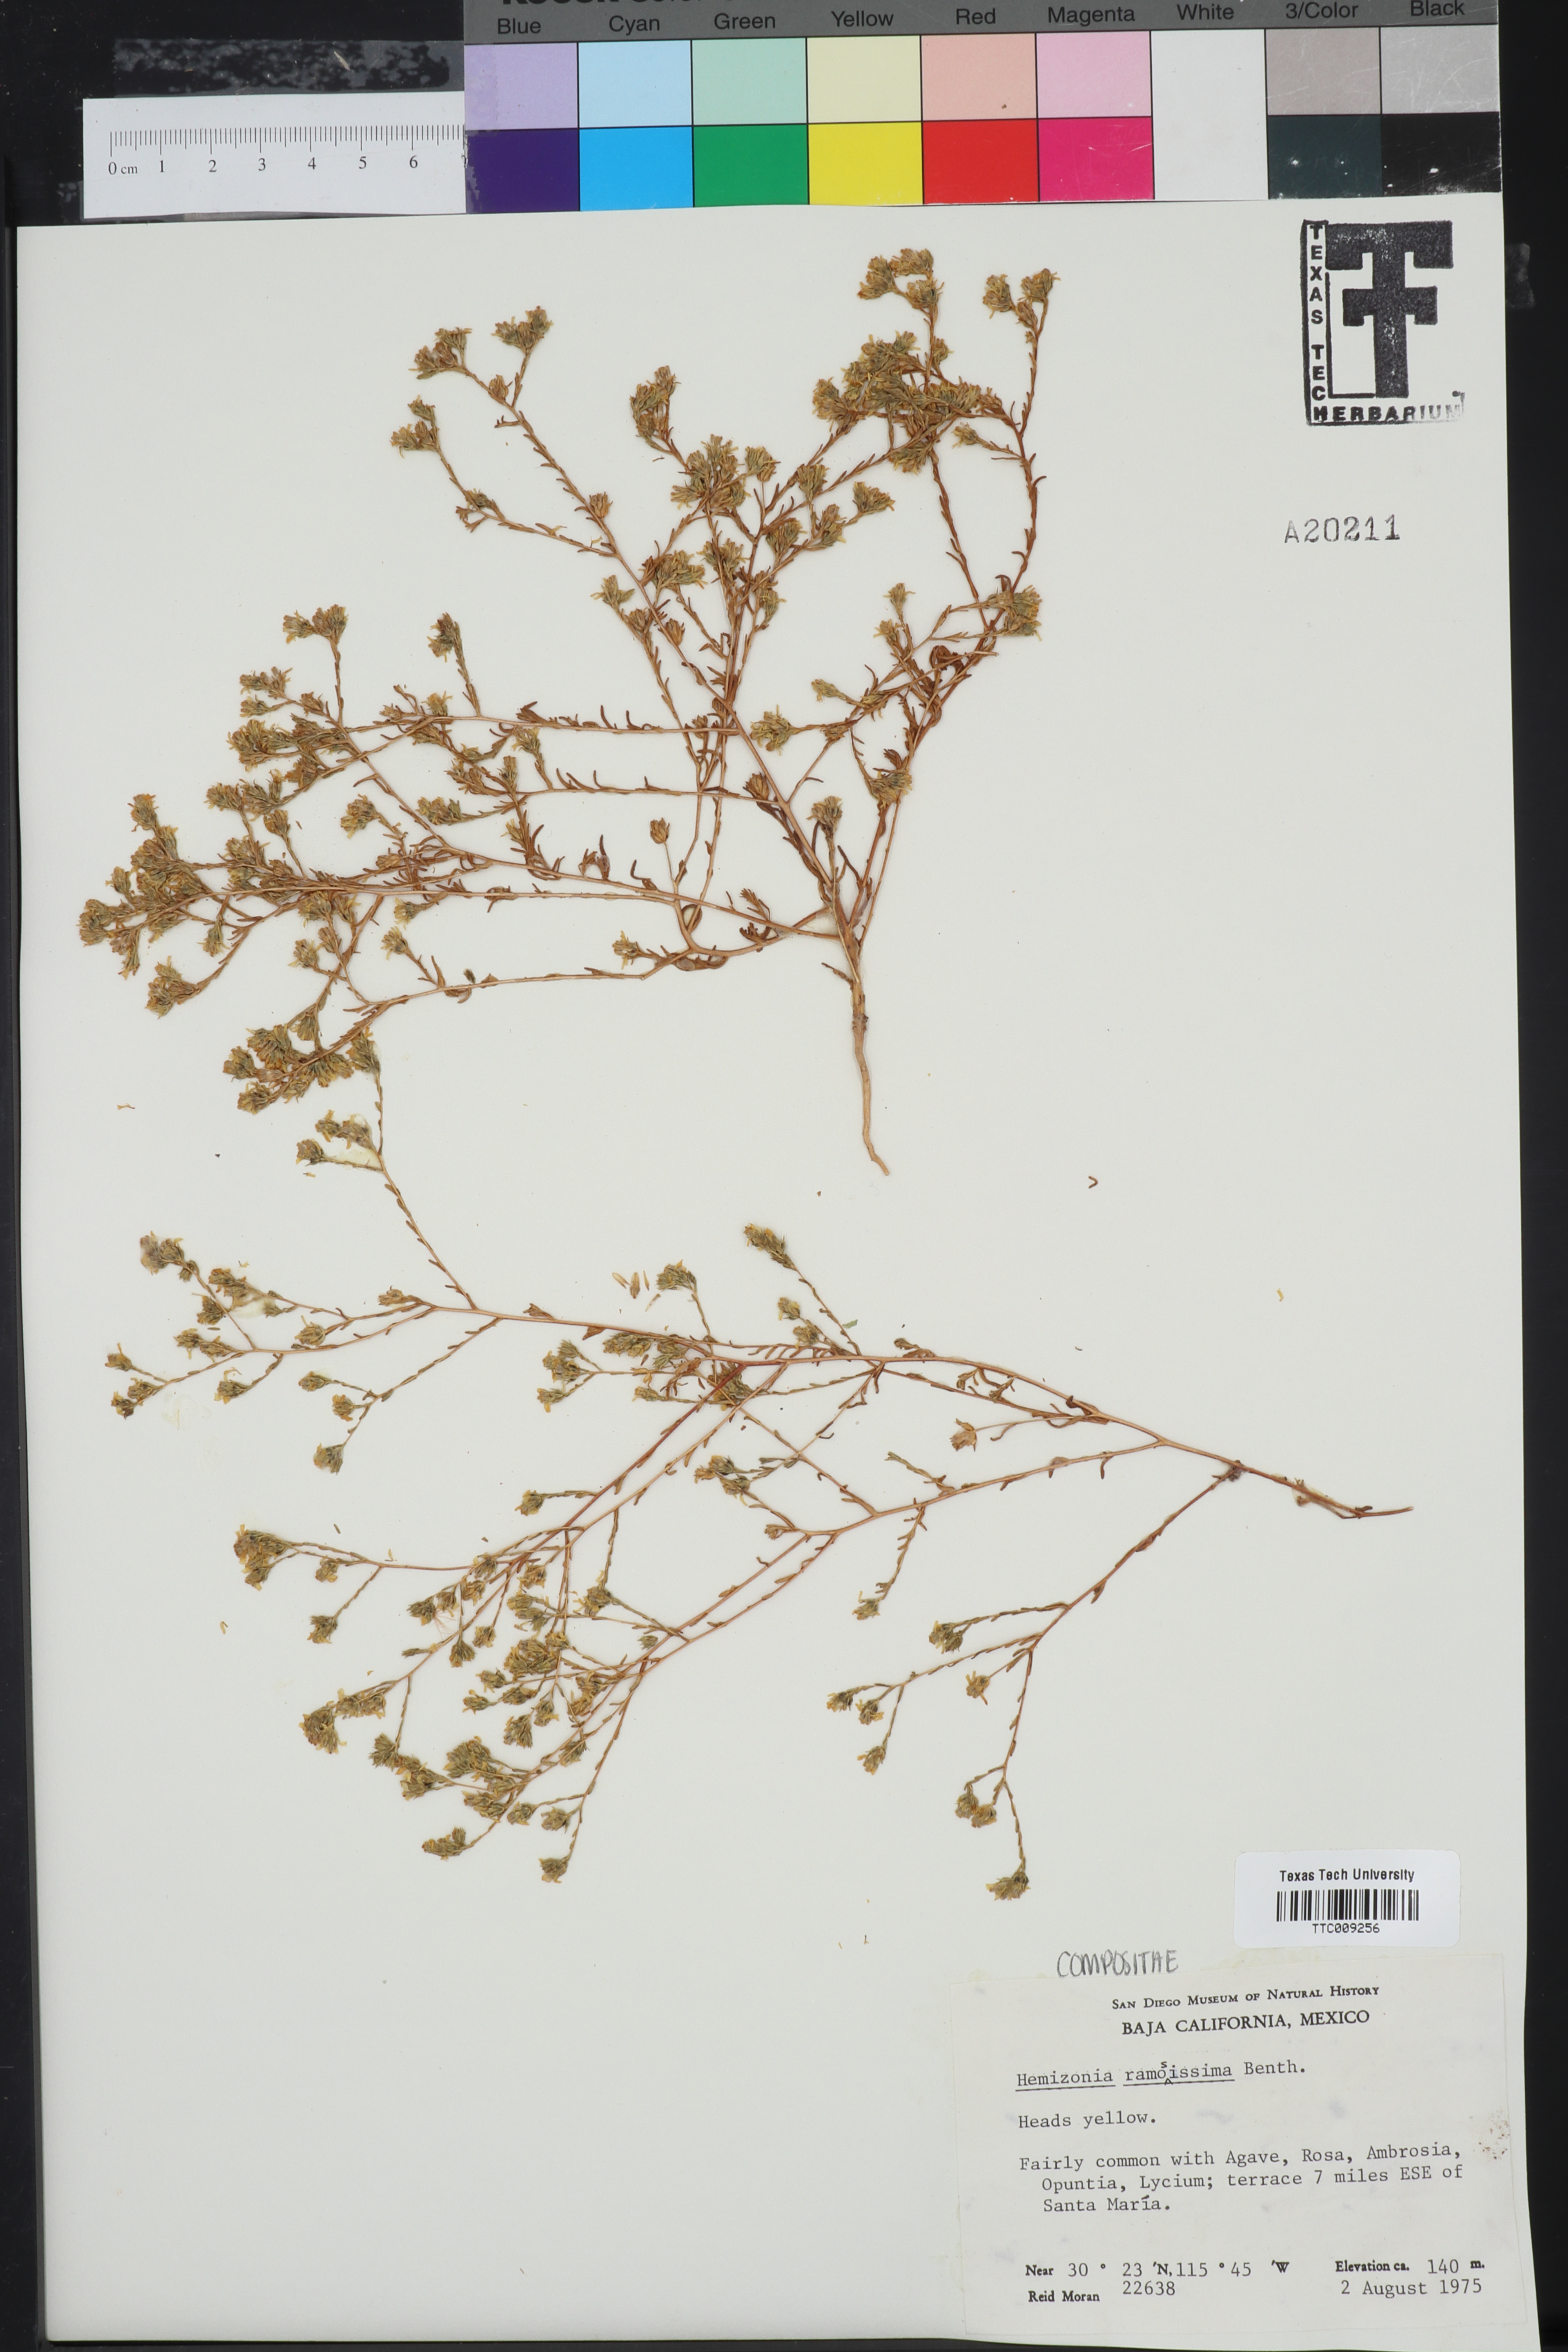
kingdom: Plantae
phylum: Tracheophyta
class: Magnoliopsida
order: Asterales
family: Asteraceae
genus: Deinandra
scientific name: Deinandra fasciculata
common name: Clustered tarweed
